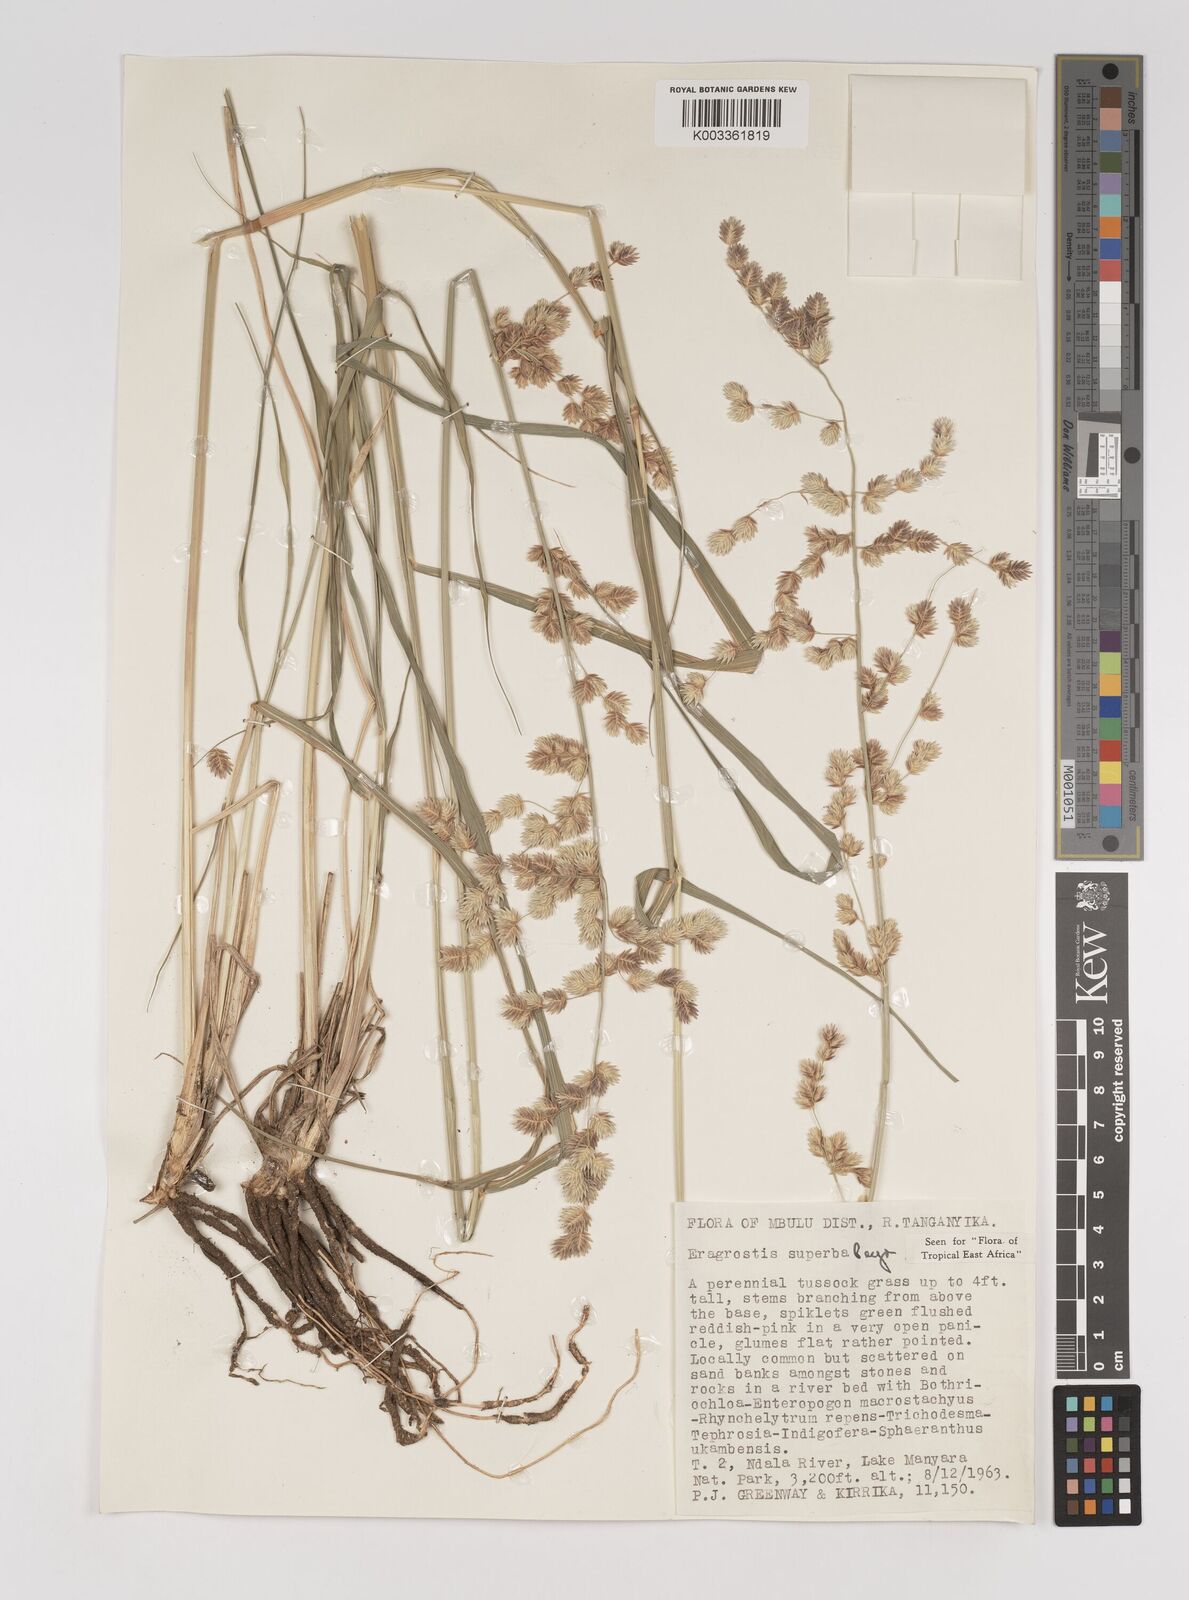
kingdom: Plantae
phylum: Tracheophyta
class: Liliopsida
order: Poales
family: Poaceae
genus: Eragrostis
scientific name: Eragrostis superba
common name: Wilman lovegrass
